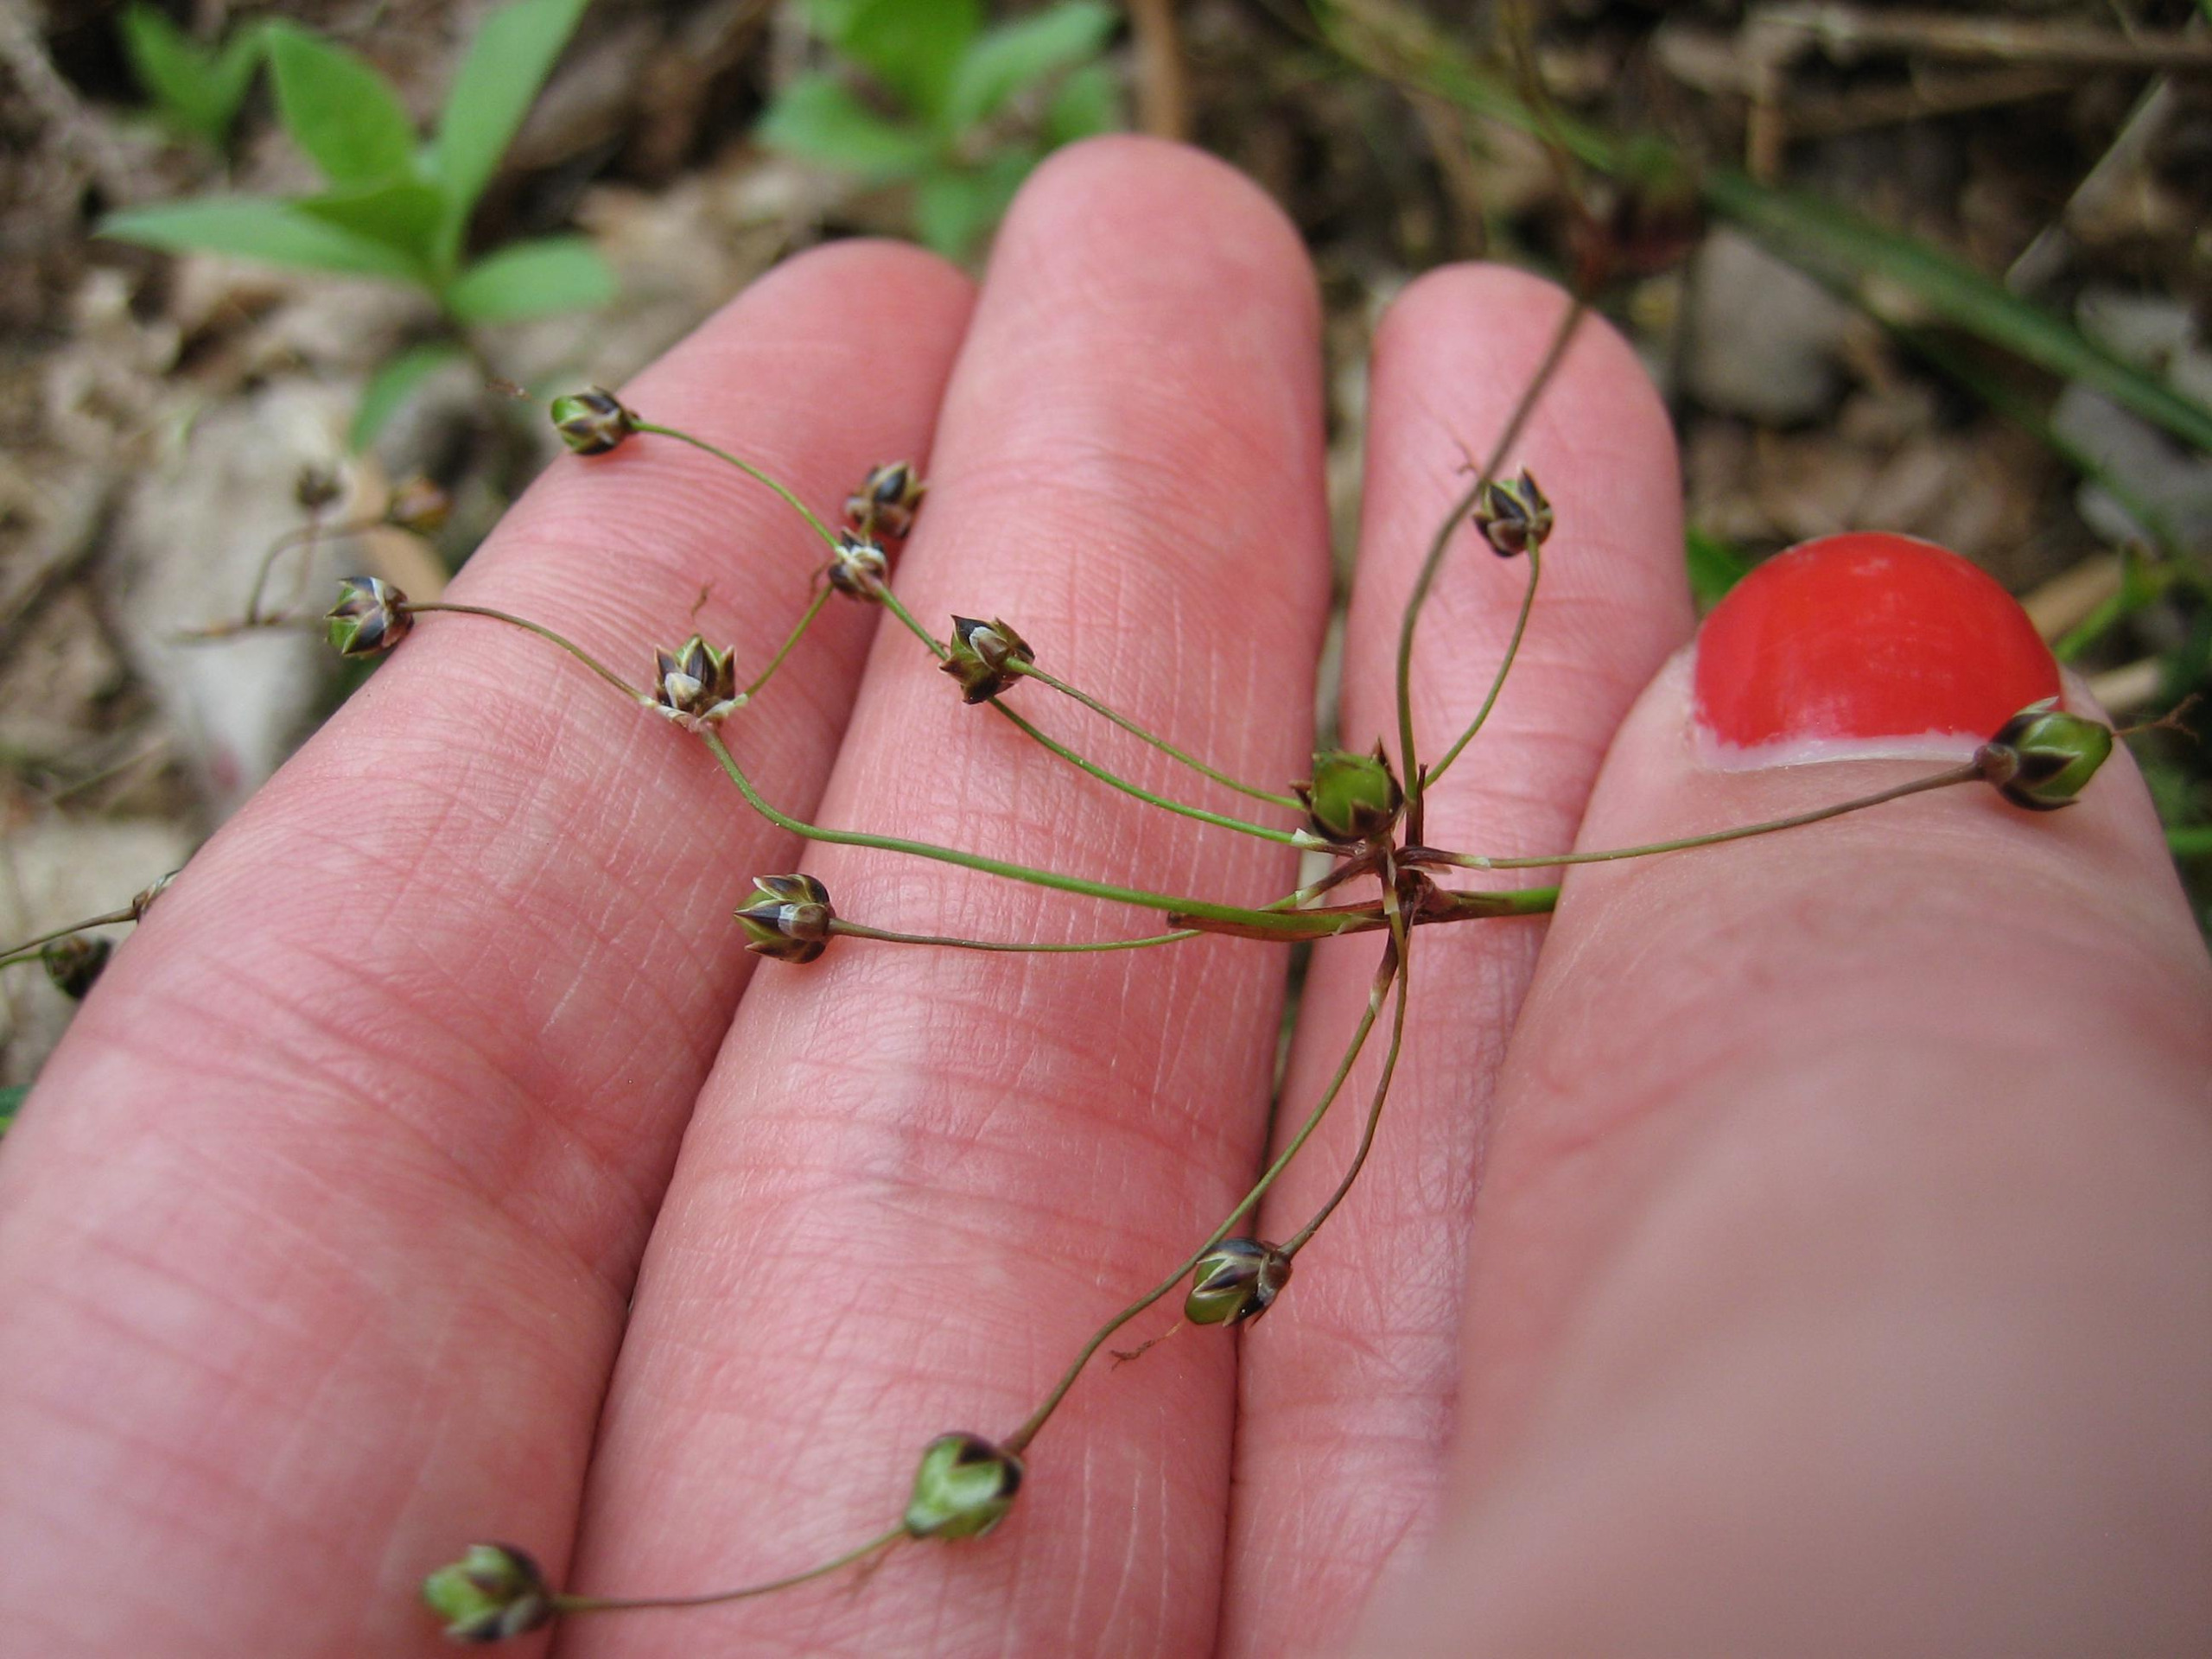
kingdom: Plantae
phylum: Tracheophyta
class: Liliopsida
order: Poales
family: Juncaceae
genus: Luzula
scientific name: Luzula pilosa
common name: Håret frytle
